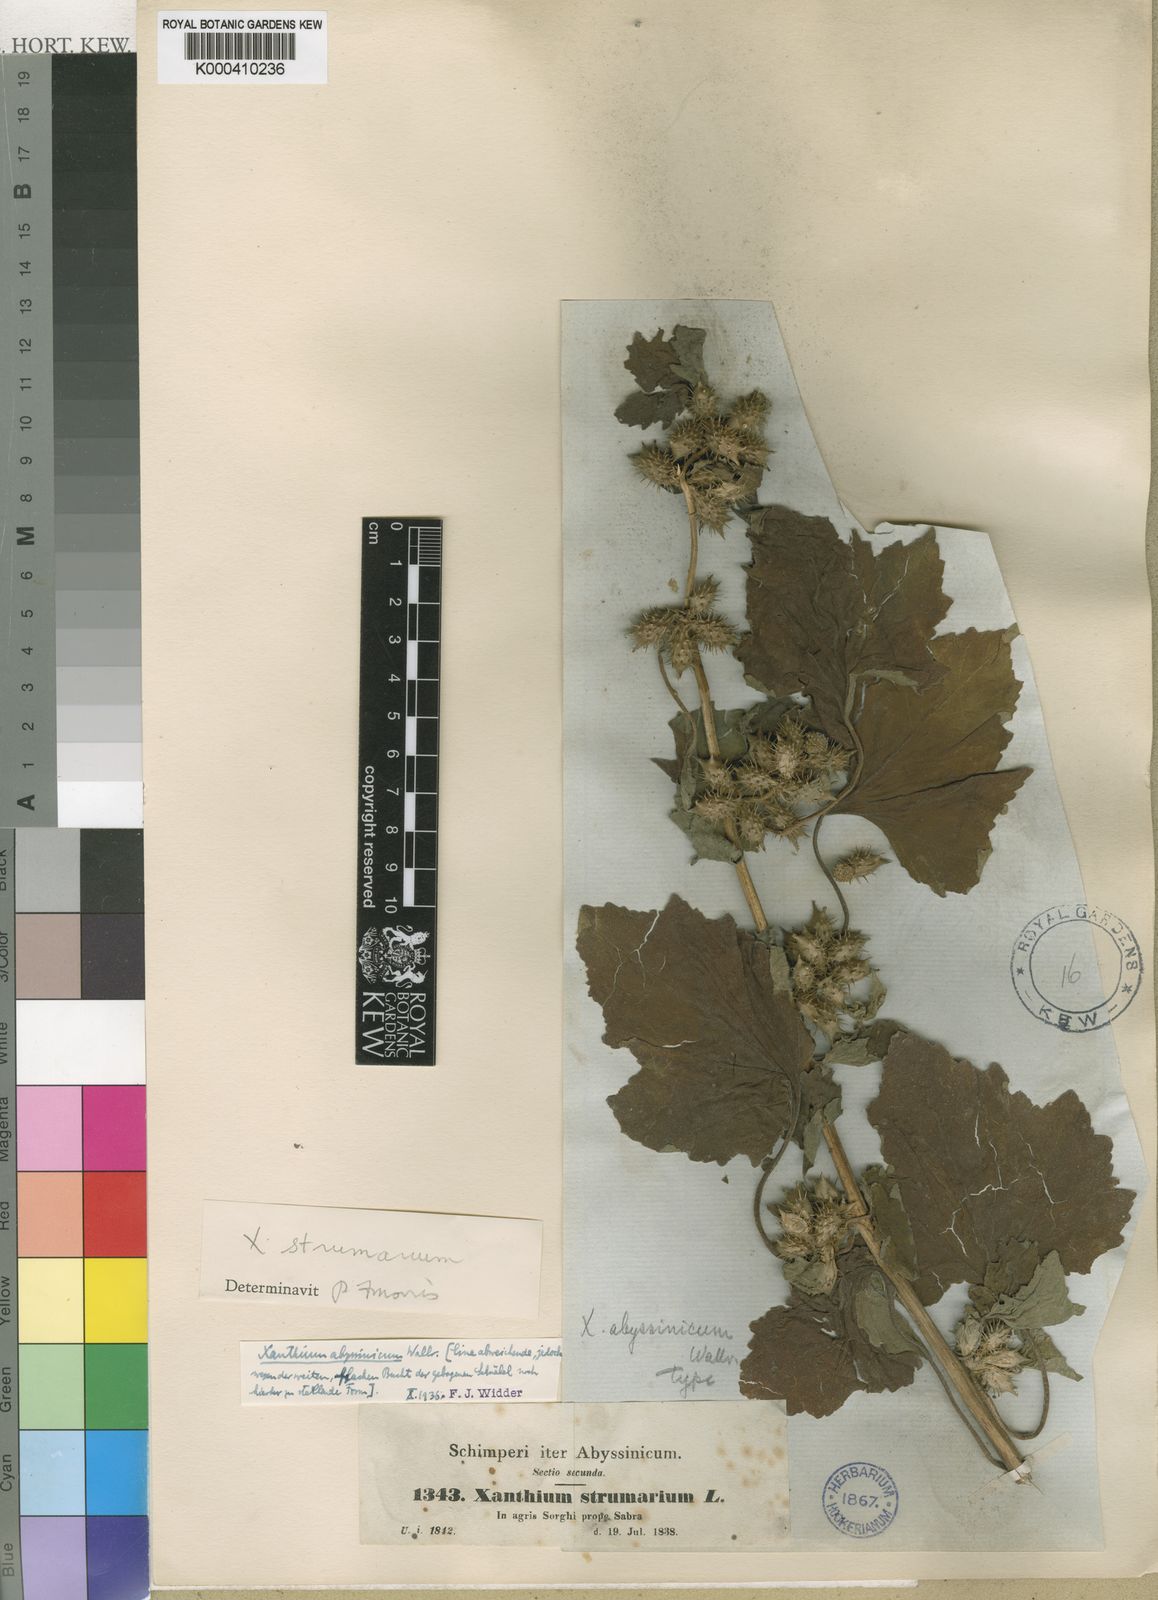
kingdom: Plantae
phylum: Tracheophyta
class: Magnoliopsida
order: Asterales
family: Asteraceae
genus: Xanthium
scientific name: Xanthium strumarium
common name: Rough cocklebur
